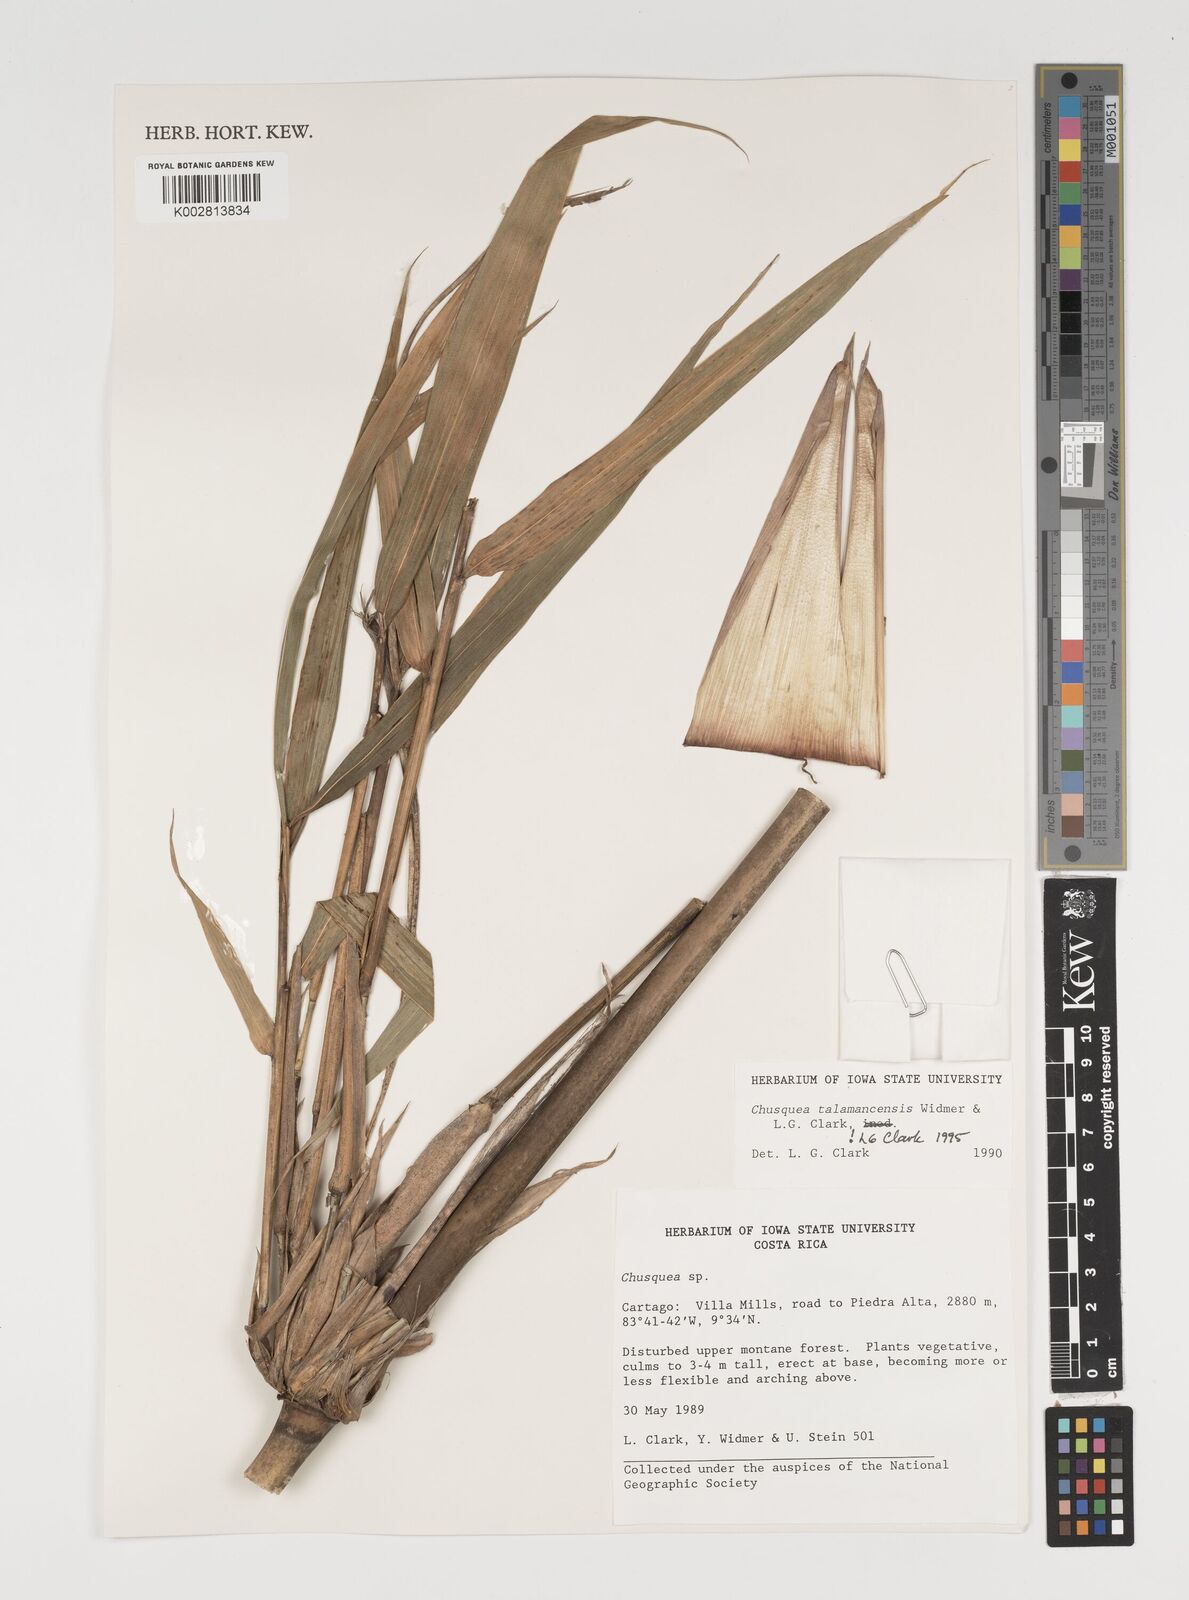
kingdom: Plantae
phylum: Tracheophyta
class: Liliopsida
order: Poales
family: Poaceae
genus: Chusquea
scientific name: Chusquea talamancensis
